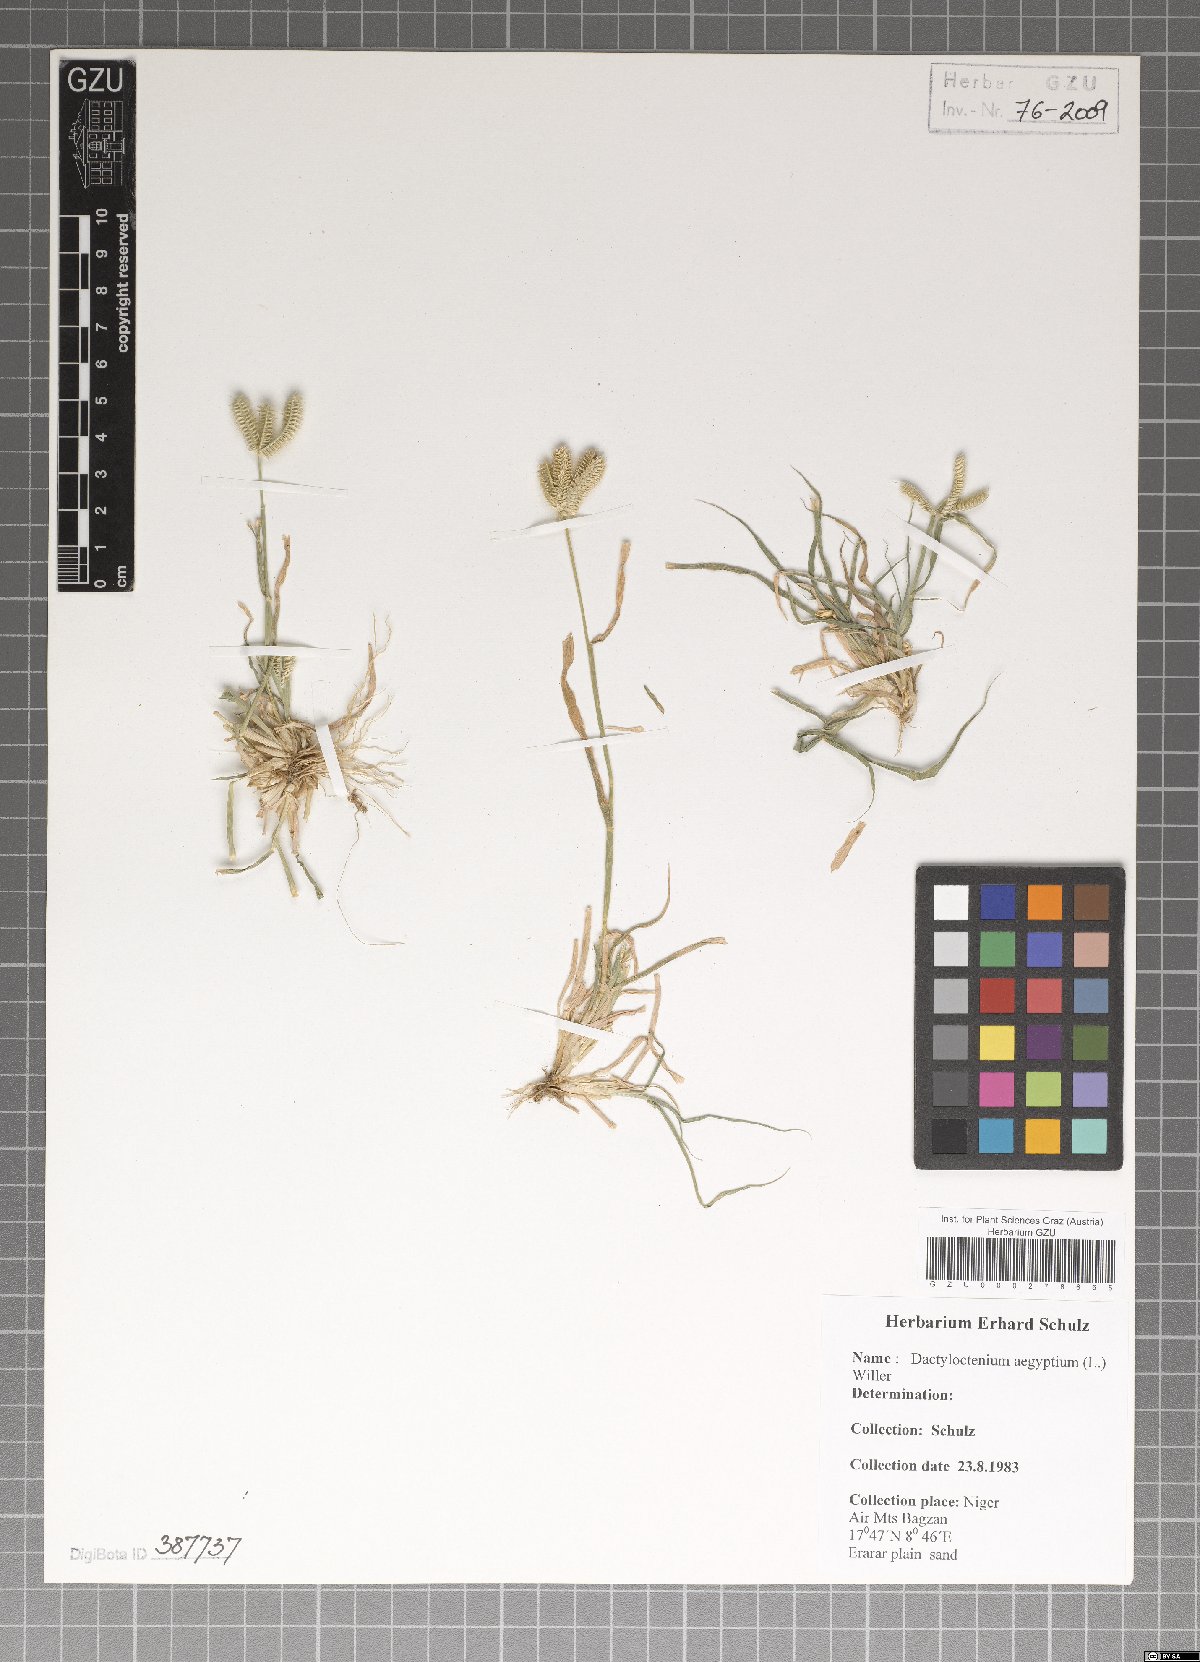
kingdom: Plantae
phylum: Tracheophyta
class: Liliopsida
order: Poales
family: Poaceae
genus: Dactyloctenium
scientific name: Dactyloctenium aegyptium
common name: Egyptian grass
